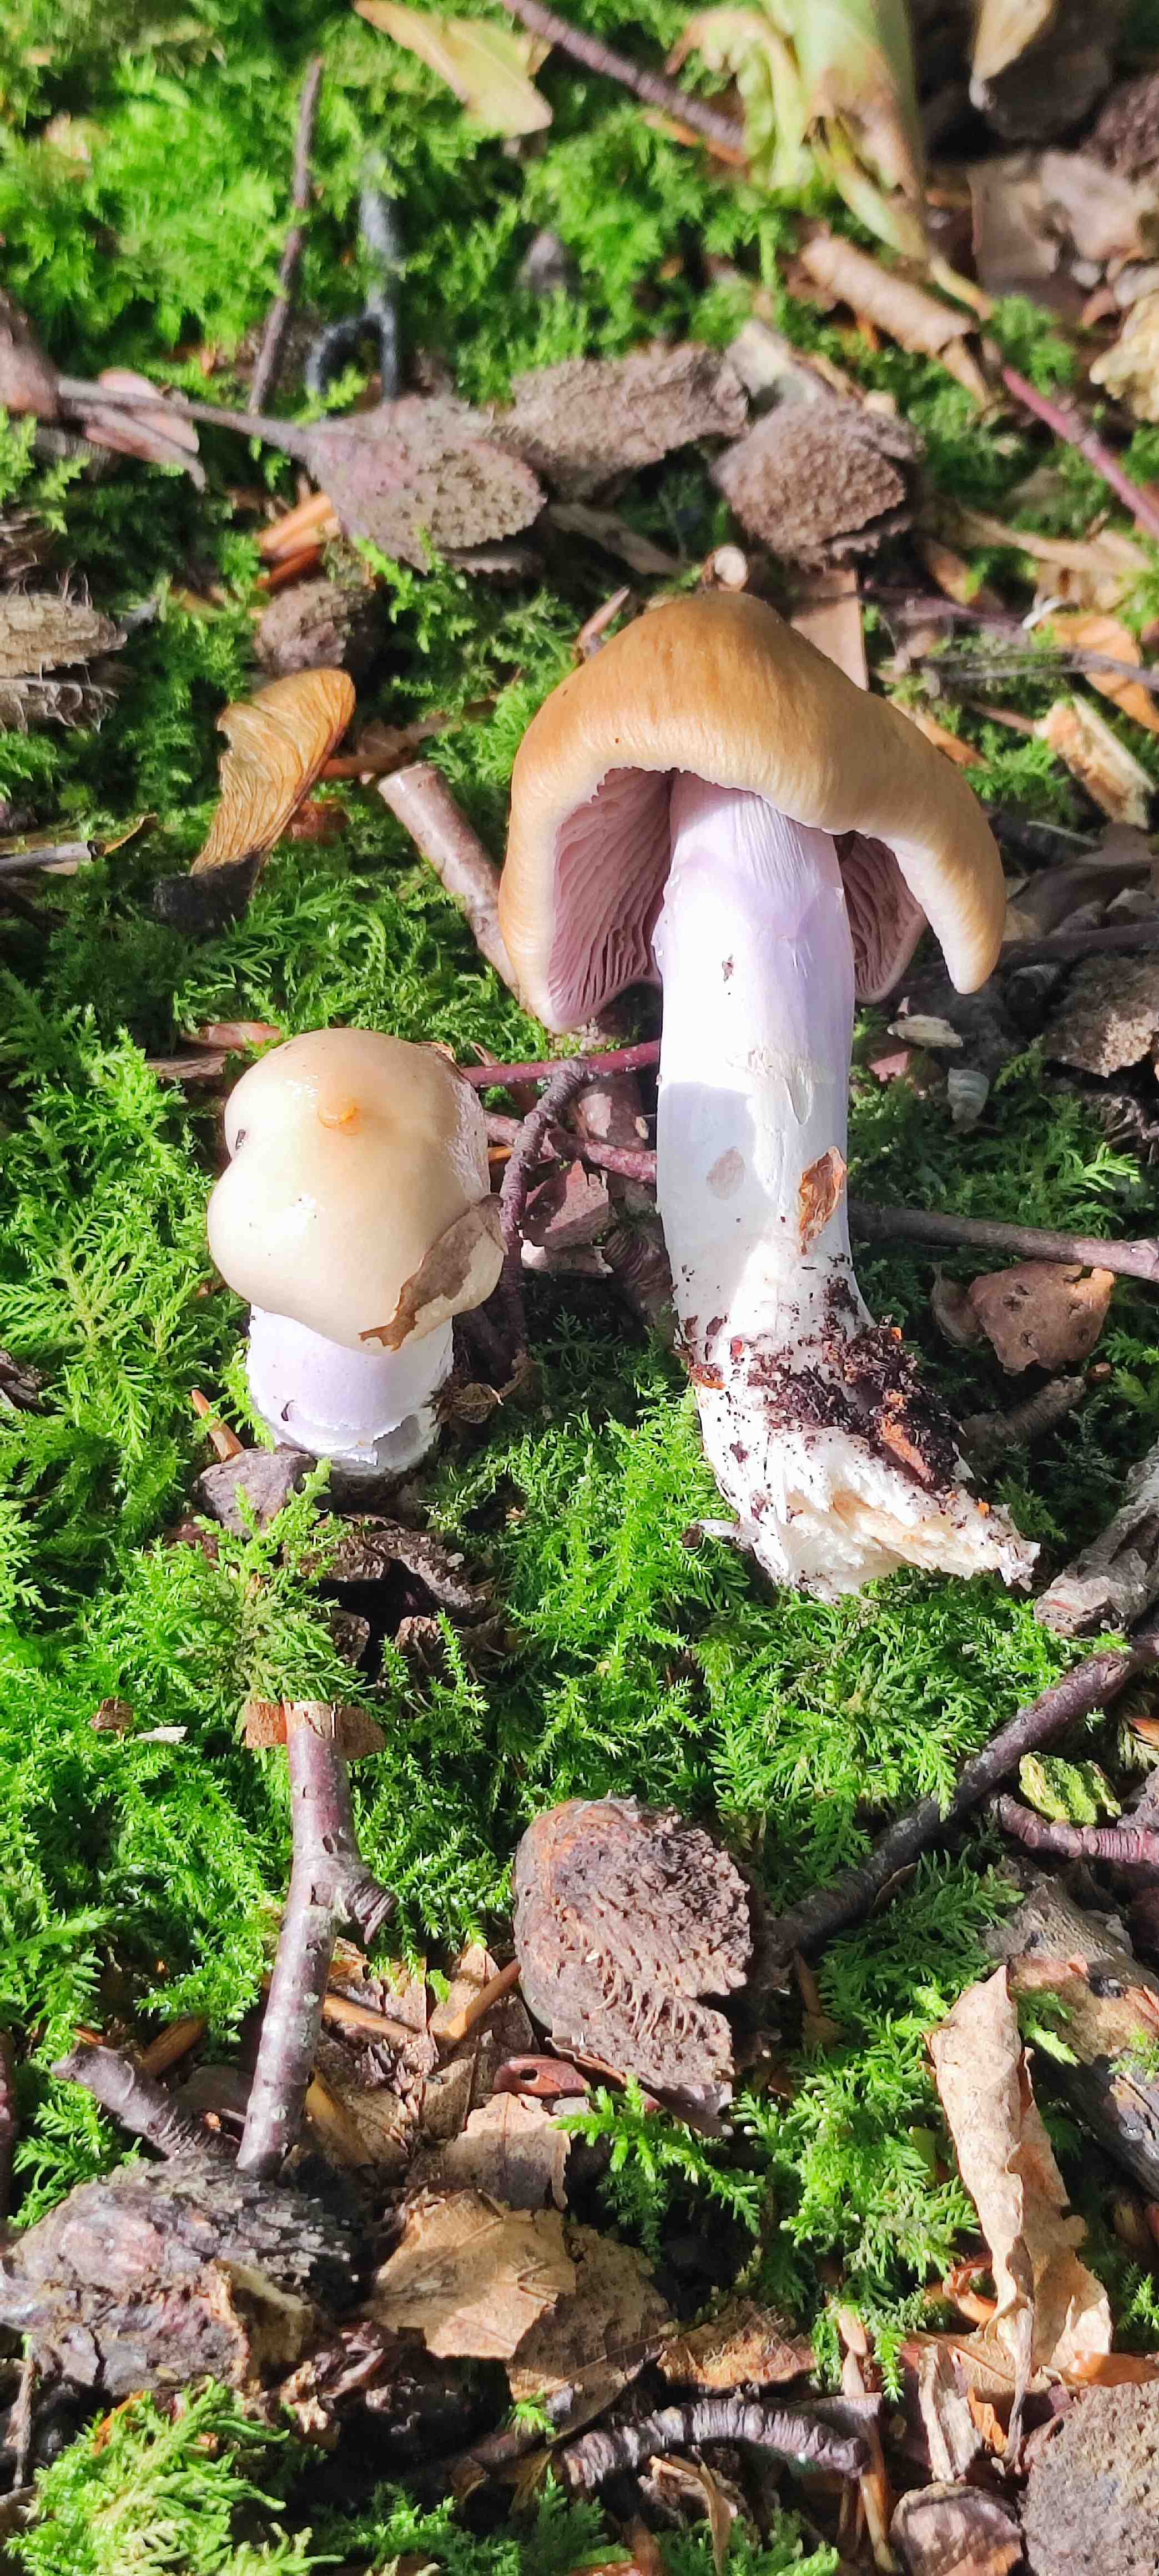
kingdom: Fungi
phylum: Basidiomycota
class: Agaricomycetes
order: Agaricales
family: Cortinariaceae
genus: Cortinarius
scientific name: Cortinarius elatior
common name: høj slørhat
